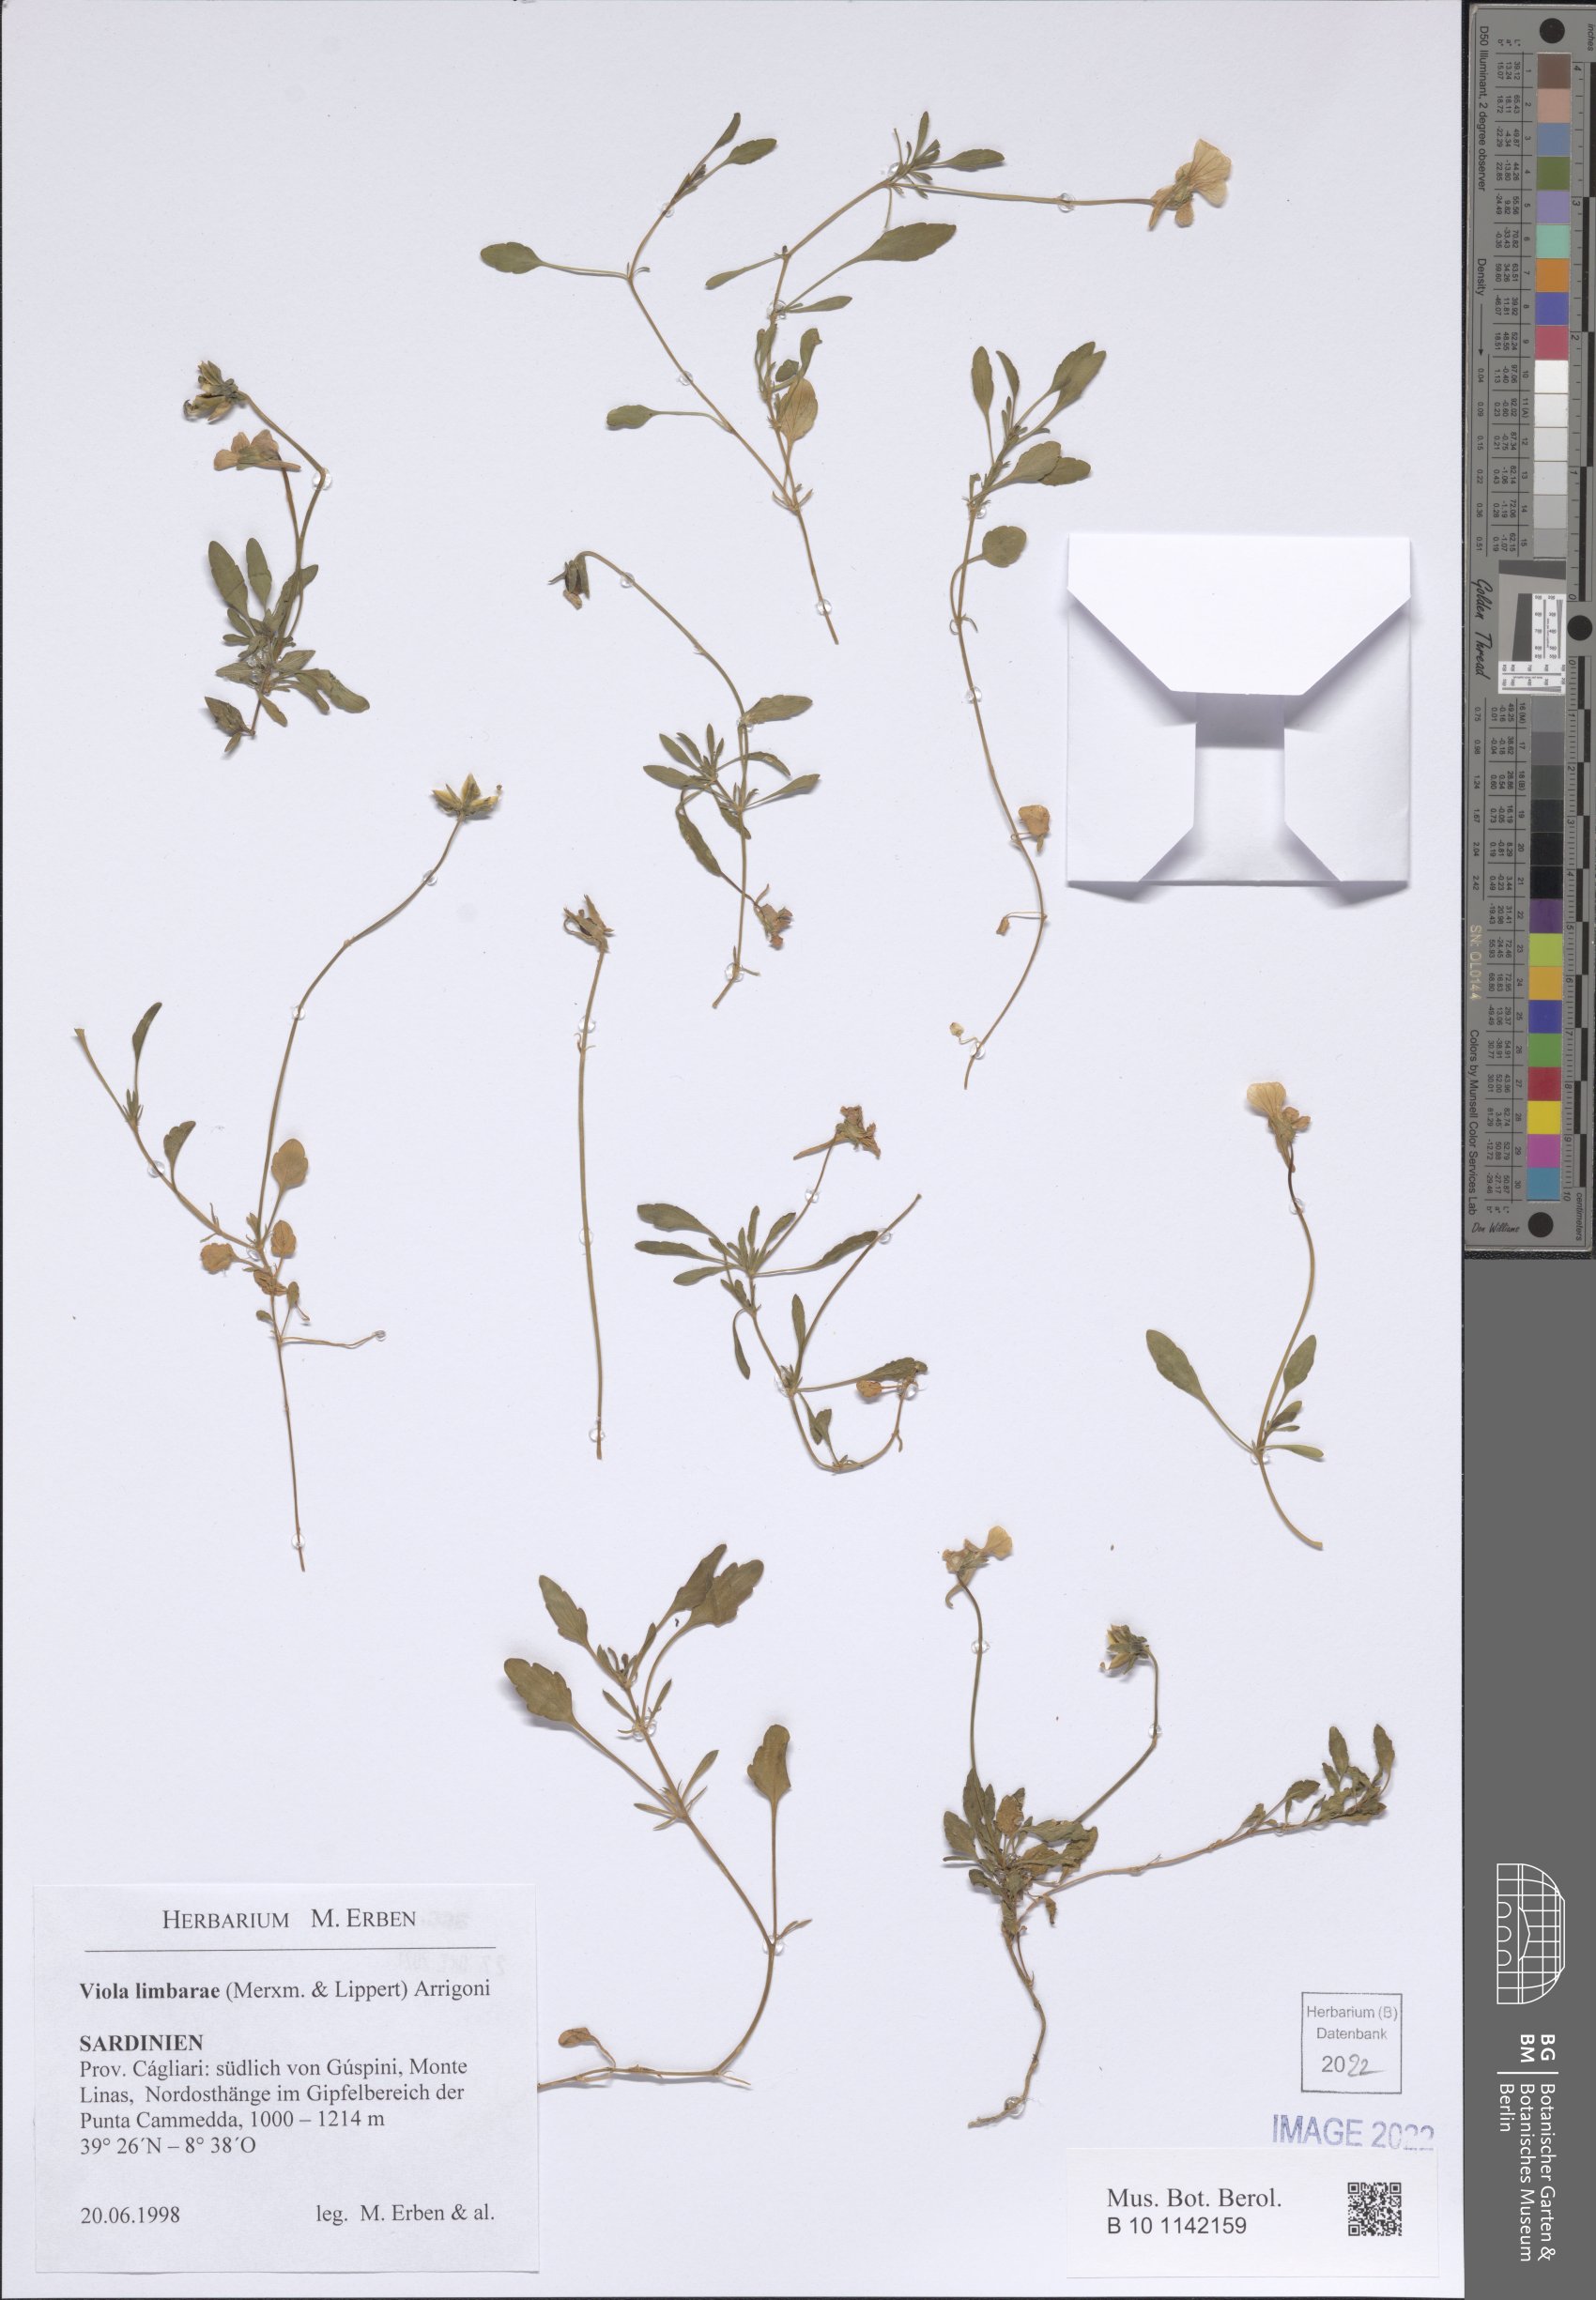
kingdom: Plantae
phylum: Tracheophyta
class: Magnoliopsida
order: Malpighiales
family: Violaceae
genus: Viola
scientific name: Viola corsica
